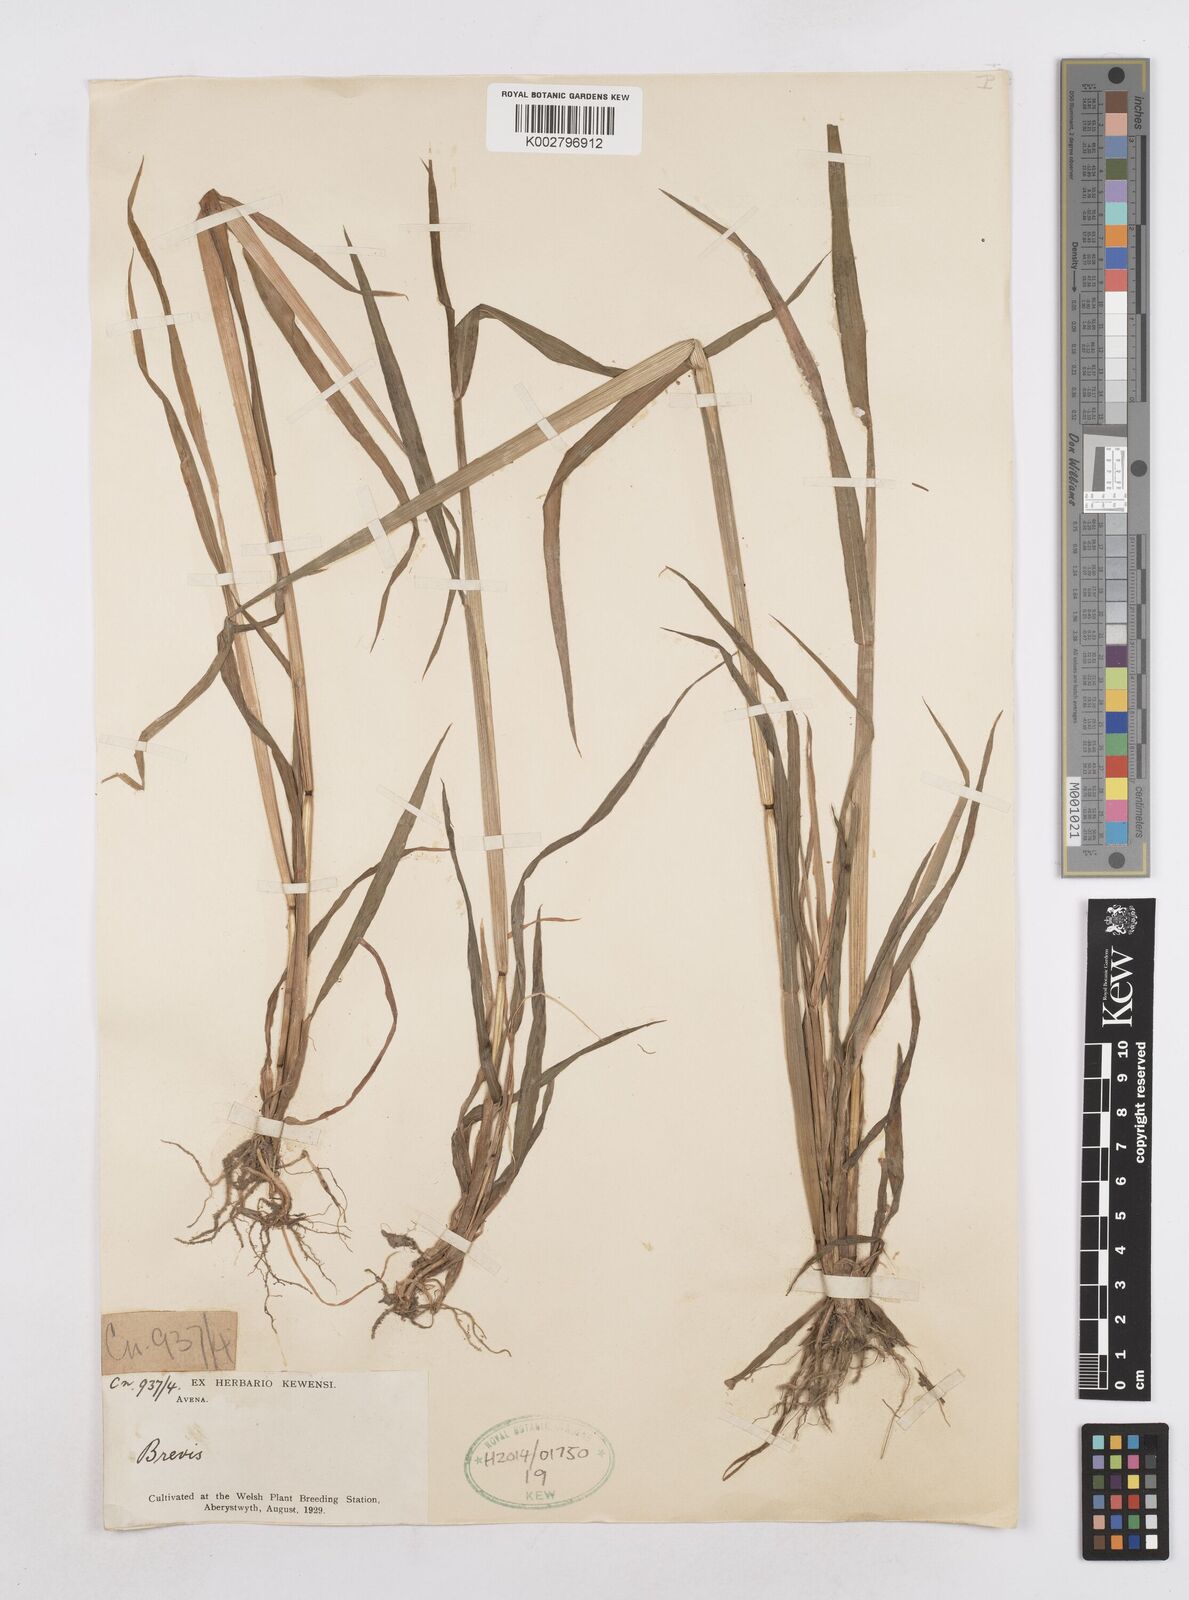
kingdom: Plantae
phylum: Tracheophyta
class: Liliopsida
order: Poales
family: Poaceae
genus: Avena
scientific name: Avena brevis
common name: Short oat
